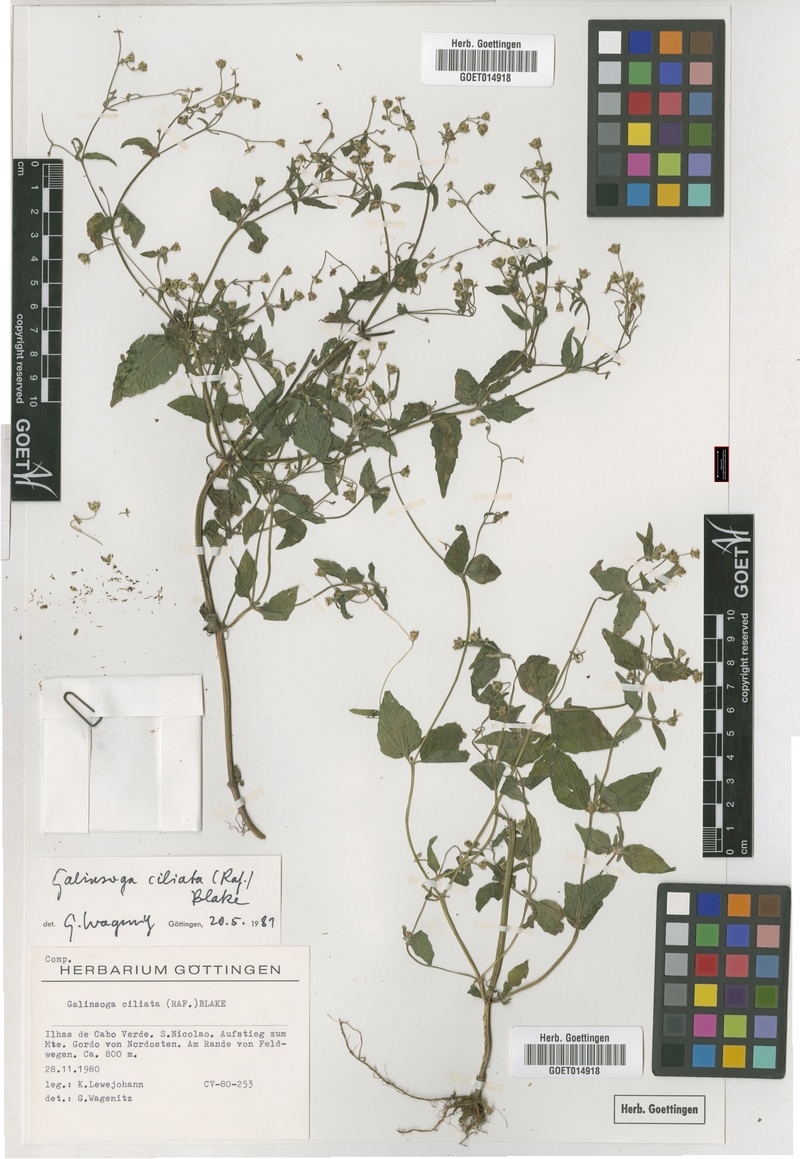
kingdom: Plantae
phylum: Tracheophyta
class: Magnoliopsida
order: Asterales
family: Asteraceae
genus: Galinsoga
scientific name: Galinsoga quadriradiata
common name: Shaggy soldier
